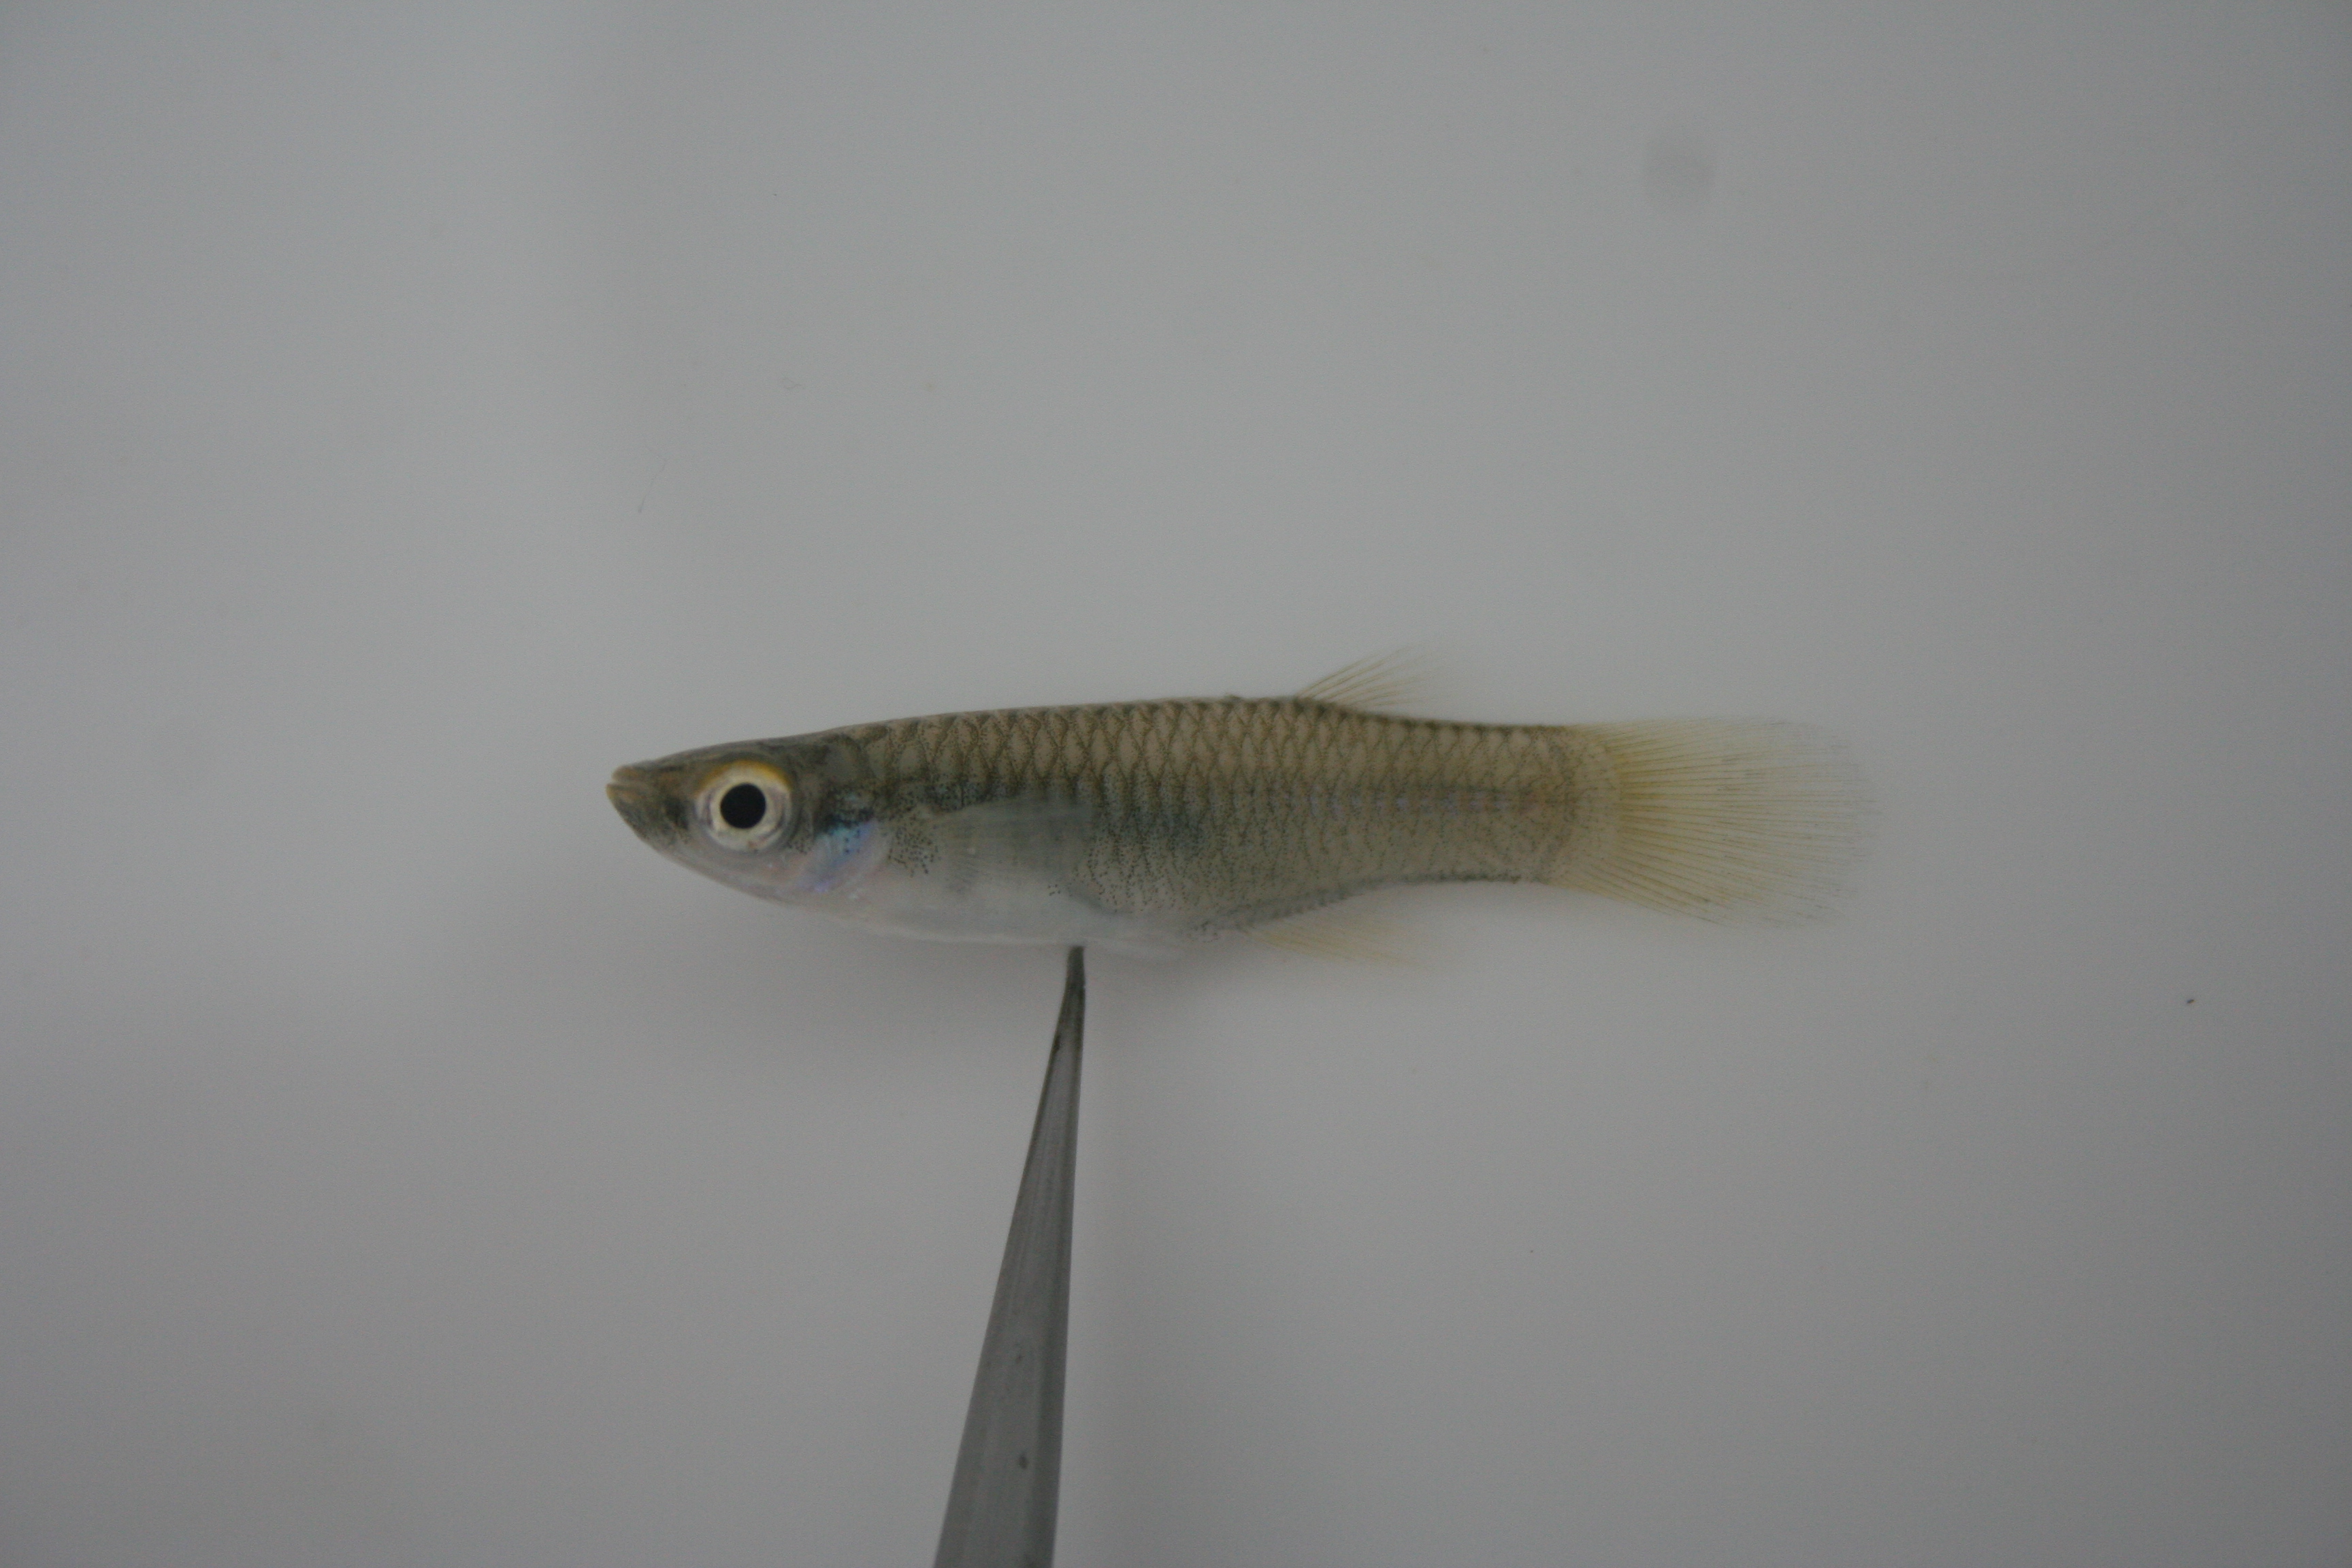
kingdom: Animalia
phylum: Chordata
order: Cyprinodontiformes
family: Poeciliidae
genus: Aplocheilichthys
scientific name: Aplocheilichthys spilauchen
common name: Banded lampeye
